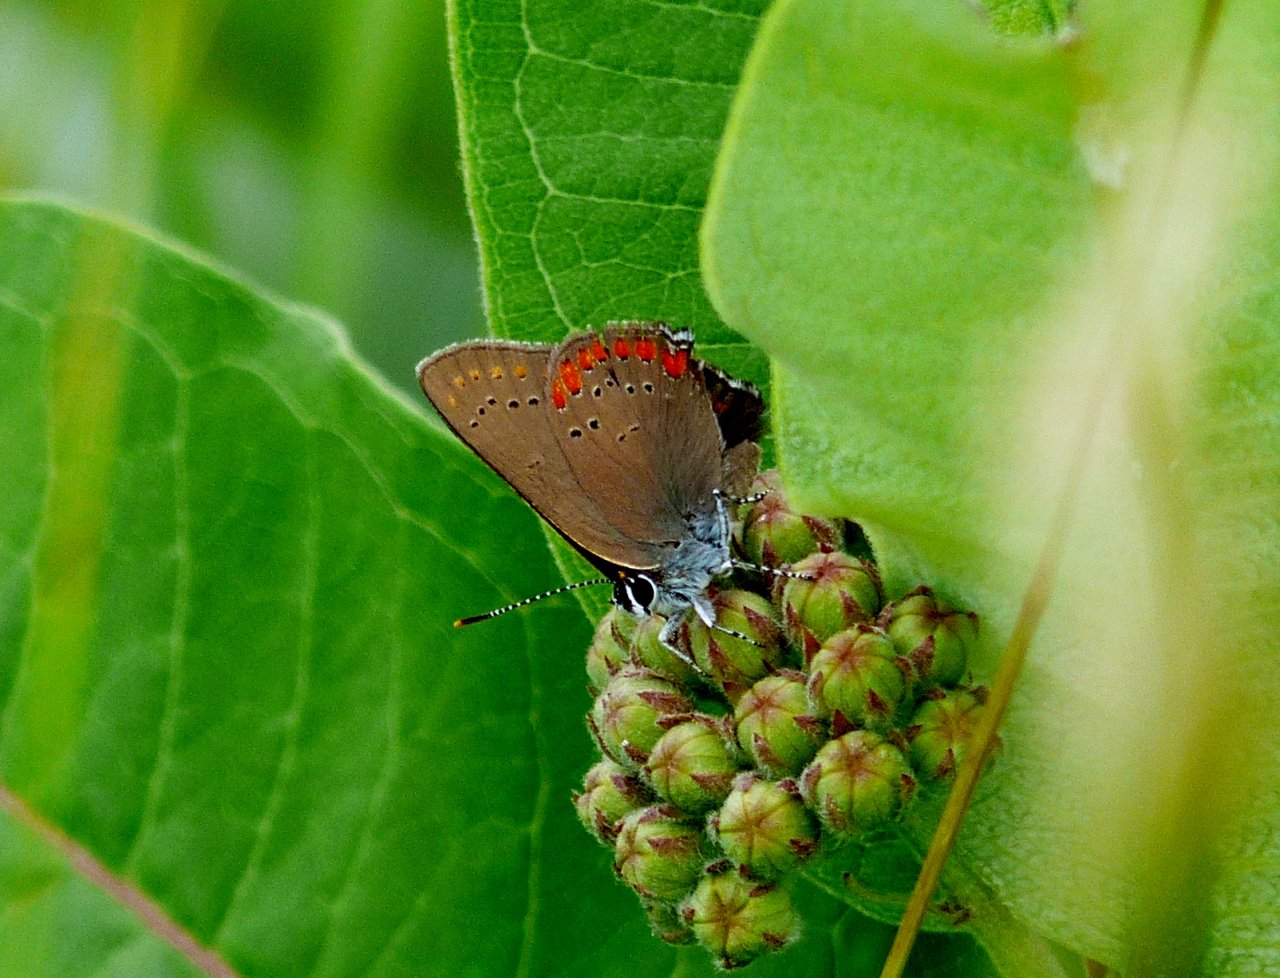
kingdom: Animalia
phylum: Arthropoda
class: Insecta
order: Lepidoptera
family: Lycaenidae
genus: Harkenclenus
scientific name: Harkenclenus titus
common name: Coral Hairstreak
